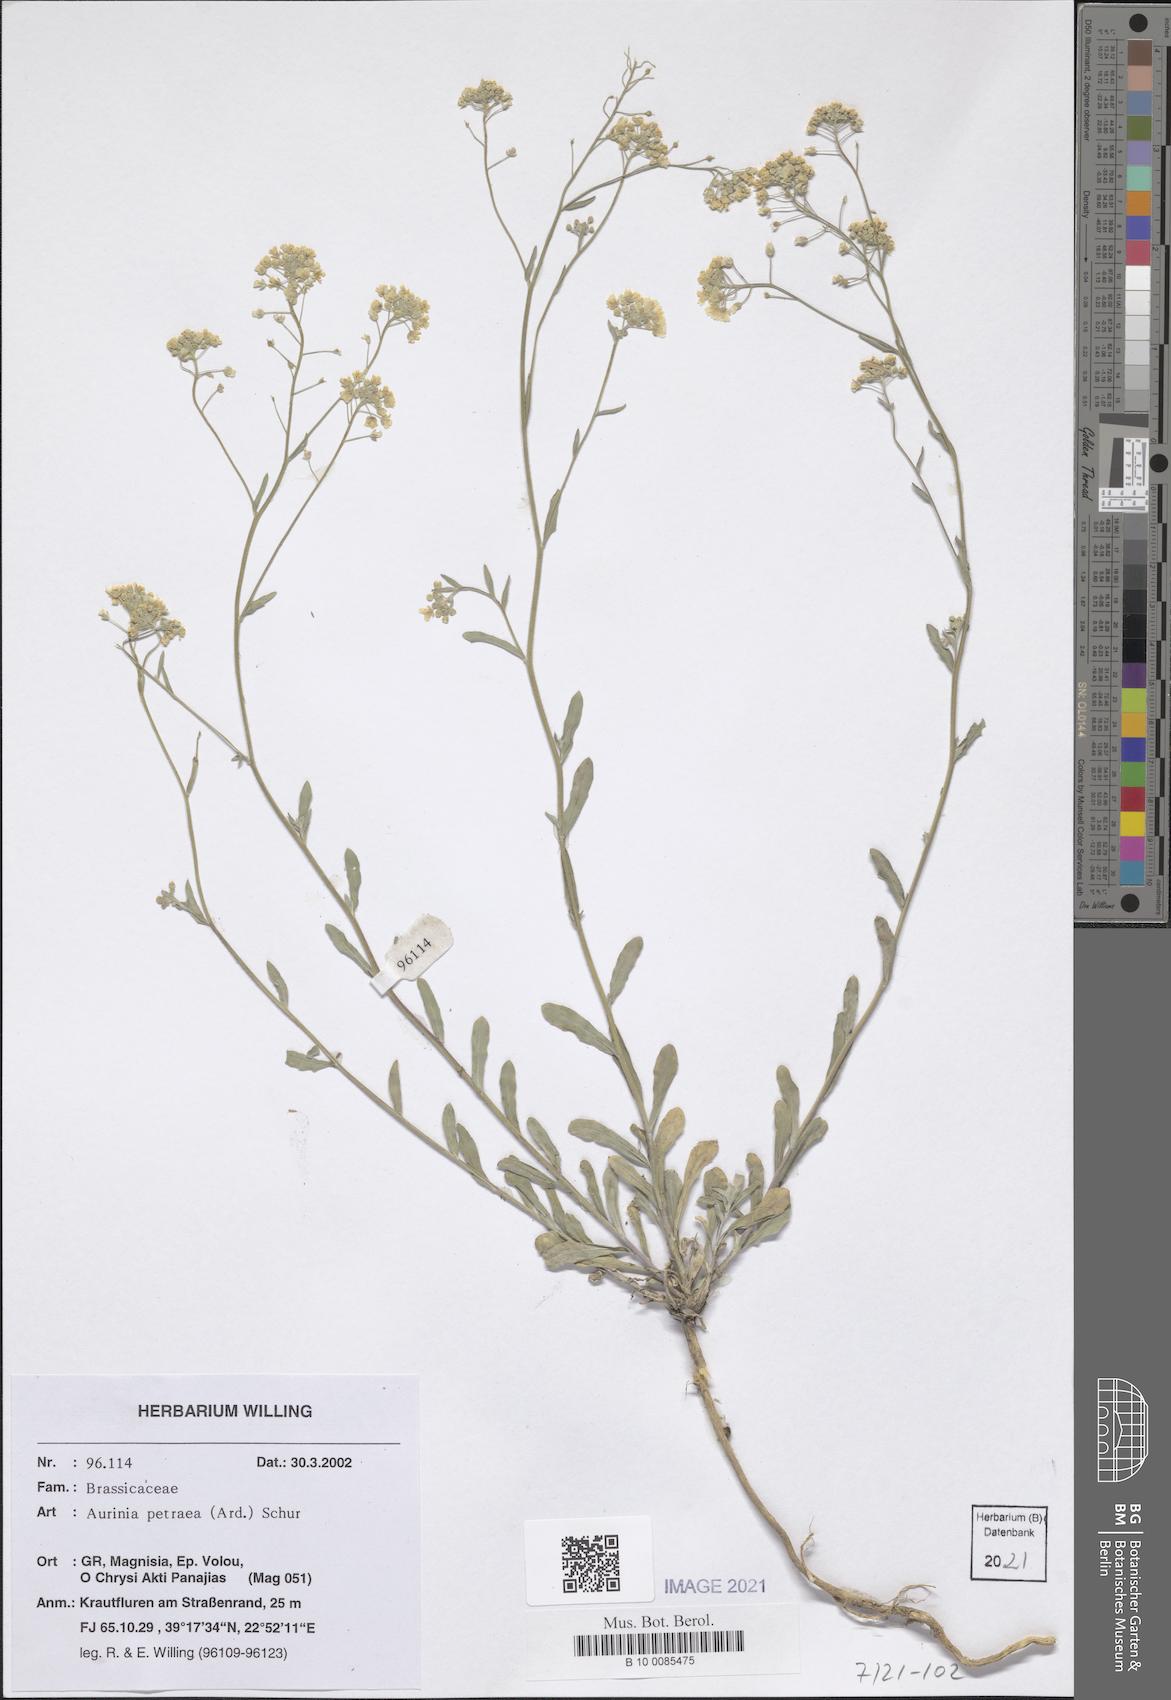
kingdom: Plantae
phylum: Tracheophyta
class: Magnoliopsida
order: Brassicales
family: Brassicaceae
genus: Aurinia
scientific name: Aurinia petraea
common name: Goldentuft
